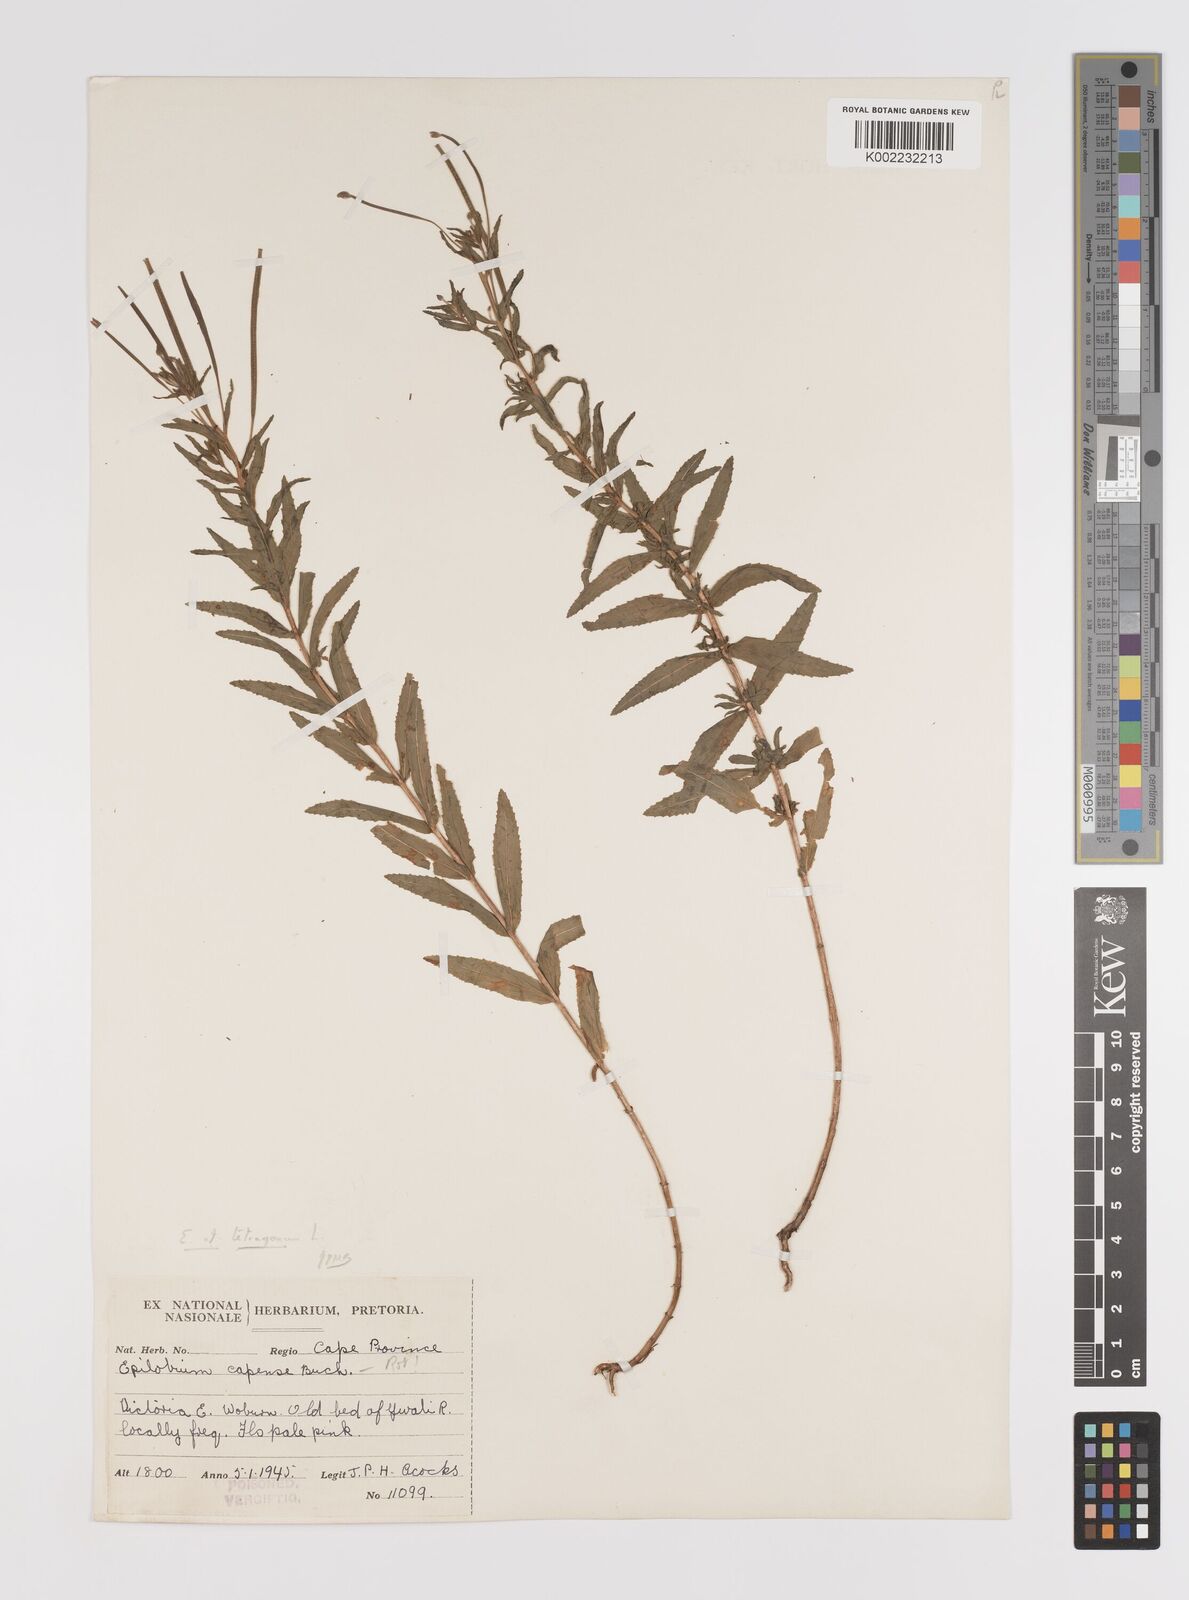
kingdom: Plantae
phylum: Tracheophyta
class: Magnoliopsida
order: Myrtales
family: Onagraceae
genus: Epilobium
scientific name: Epilobium tetragonum
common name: Square-stemmed willowherb
